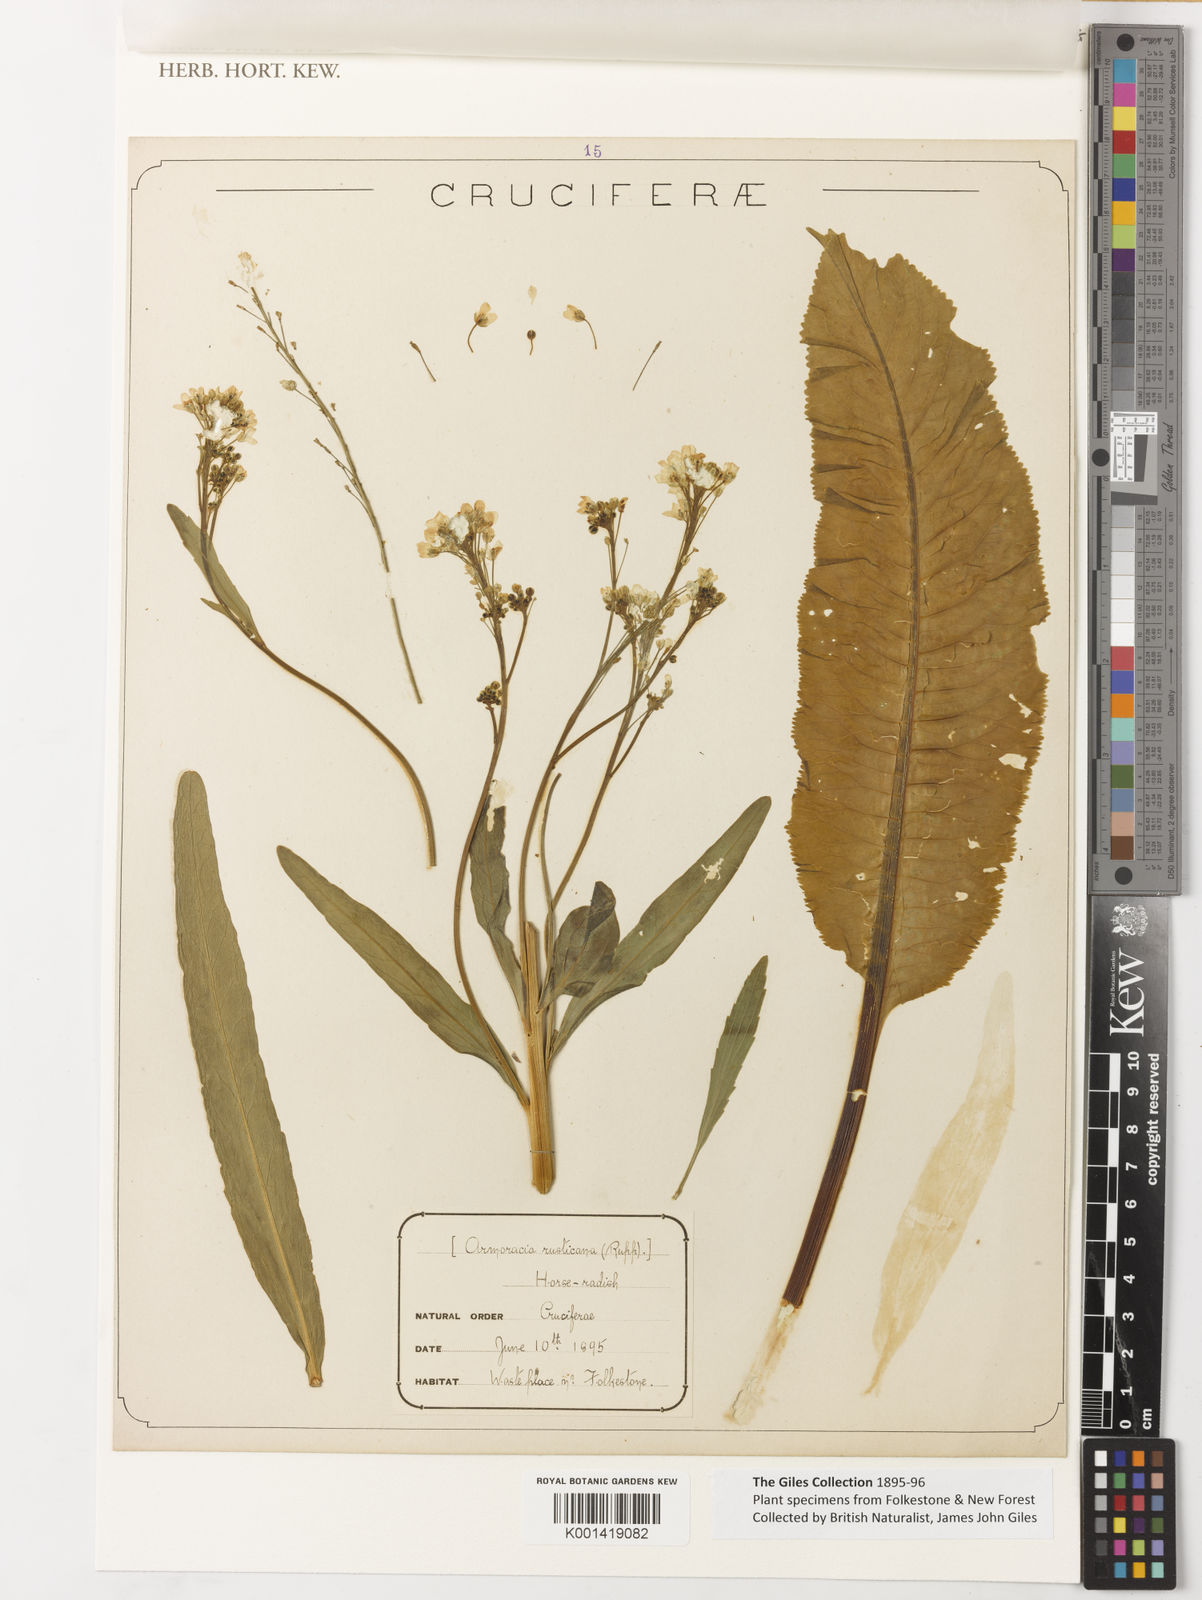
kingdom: Plantae
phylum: Tracheophyta
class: Magnoliopsida
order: Brassicales
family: Brassicaceae
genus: Armoracia
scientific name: Armoracia
